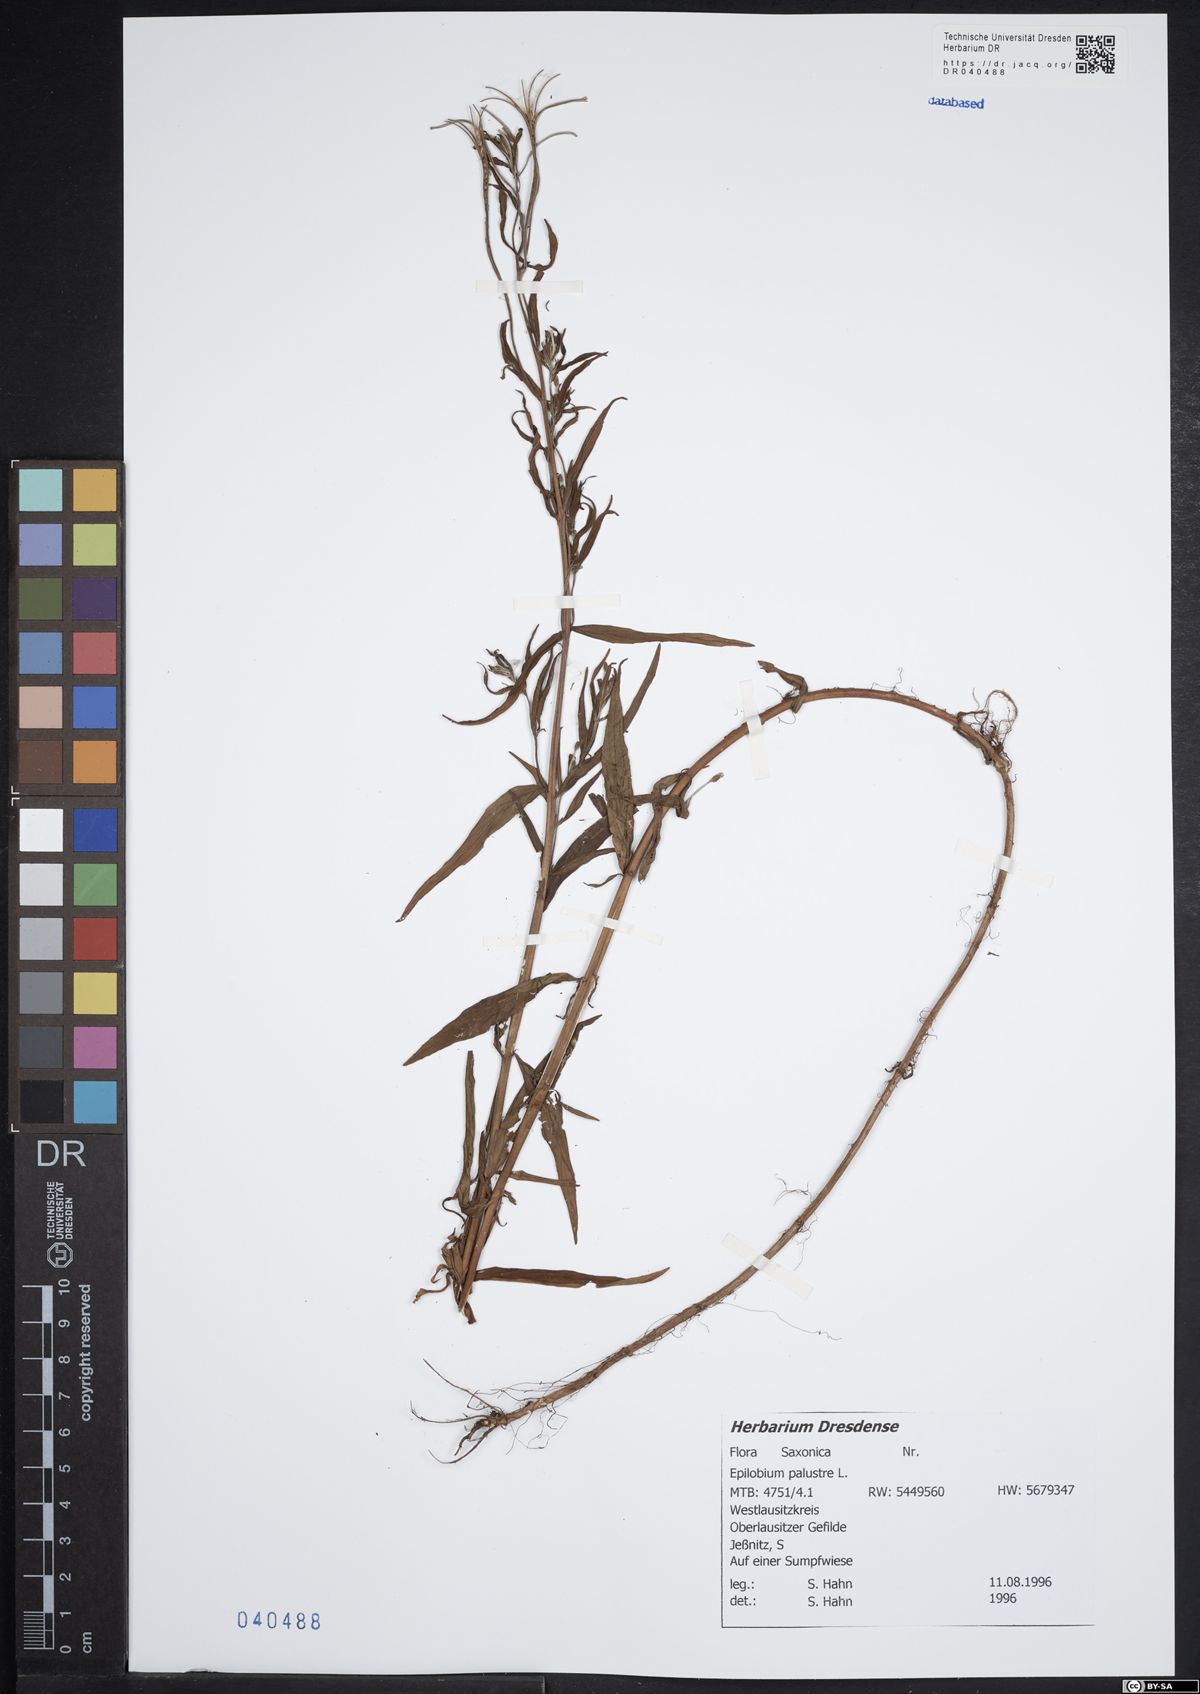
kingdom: Plantae
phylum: Tracheophyta
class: Magnoliopsida
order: Myrtales
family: Onagraceae
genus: Epilobium
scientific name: Epilobium palustre
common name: Marsh willowherb
